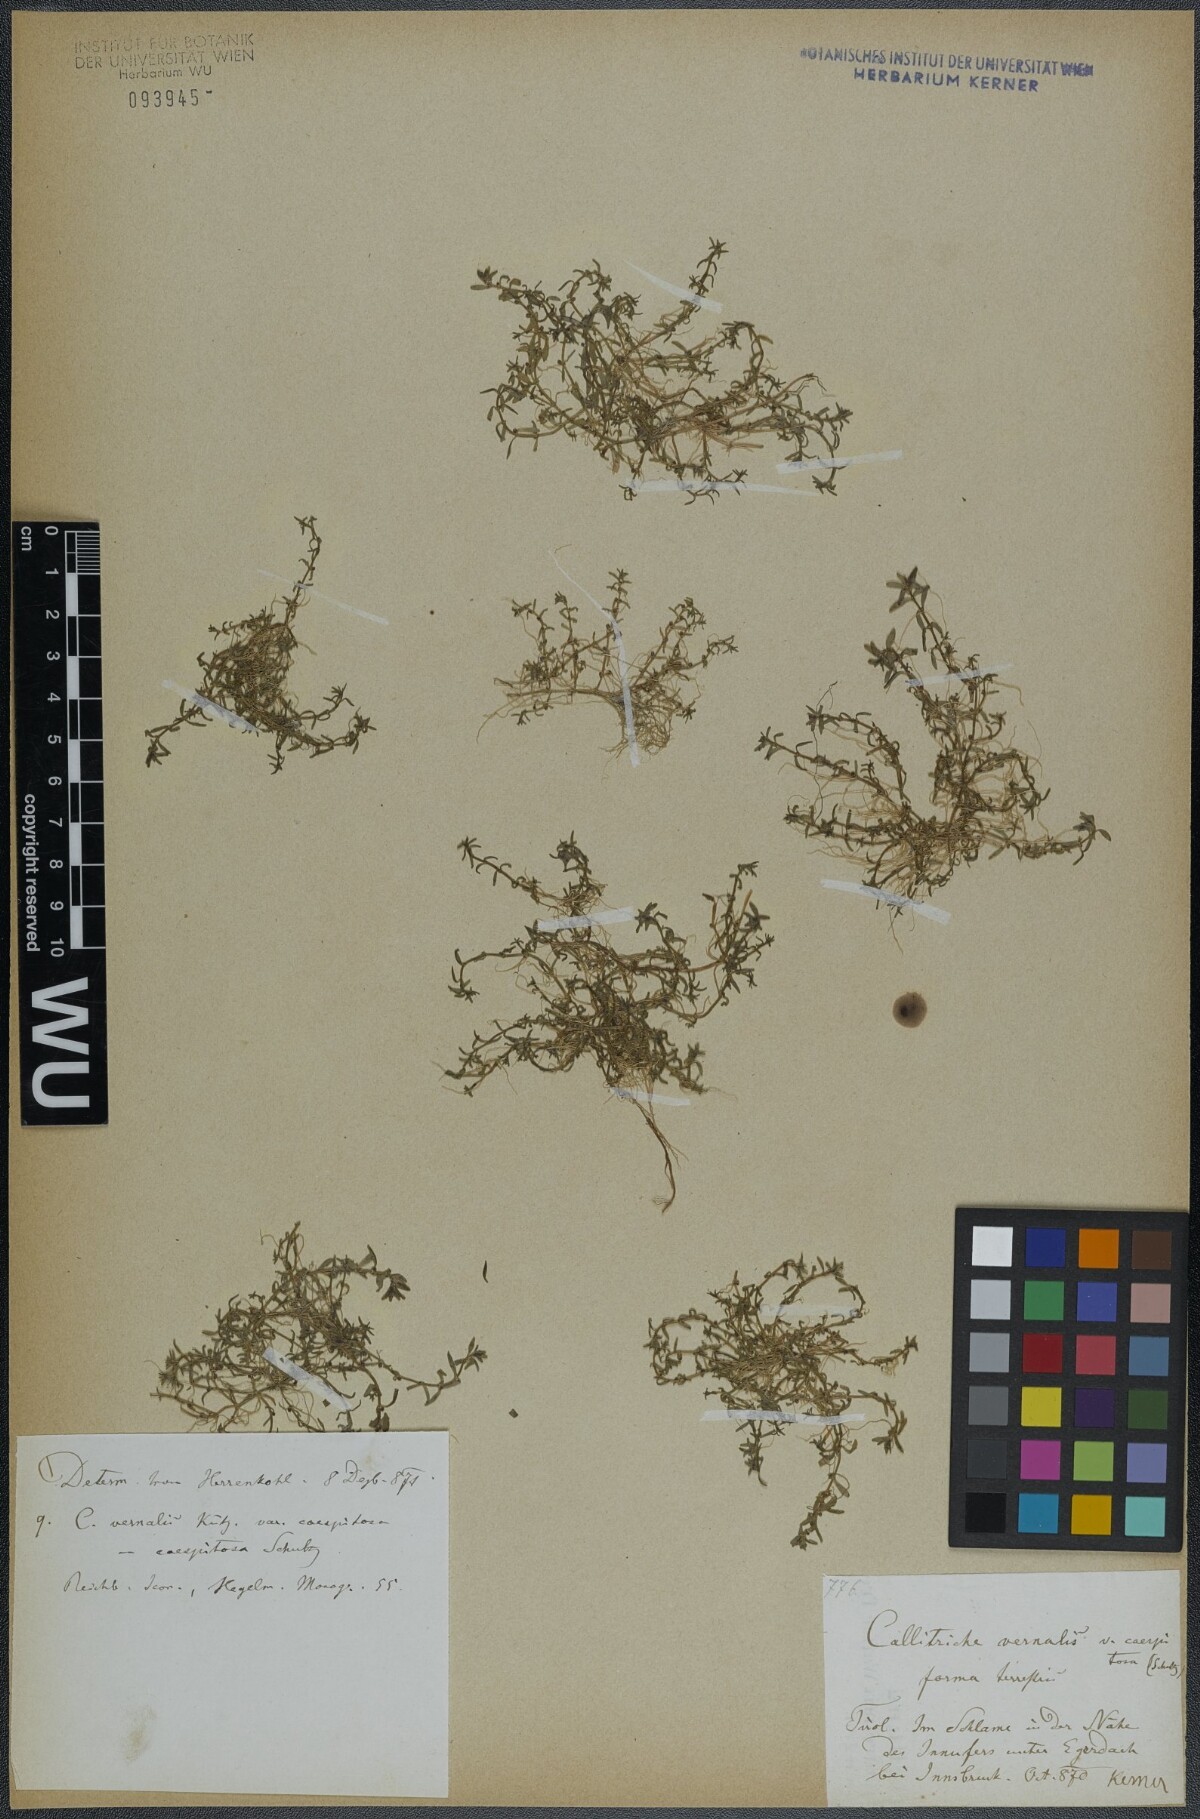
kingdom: Plantae
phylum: Tracheophyta
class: Magnoliopsida
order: Lamiales
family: Plantaginaceae
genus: Callitriche
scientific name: Callitriche palustris
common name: Spring water-starwort
